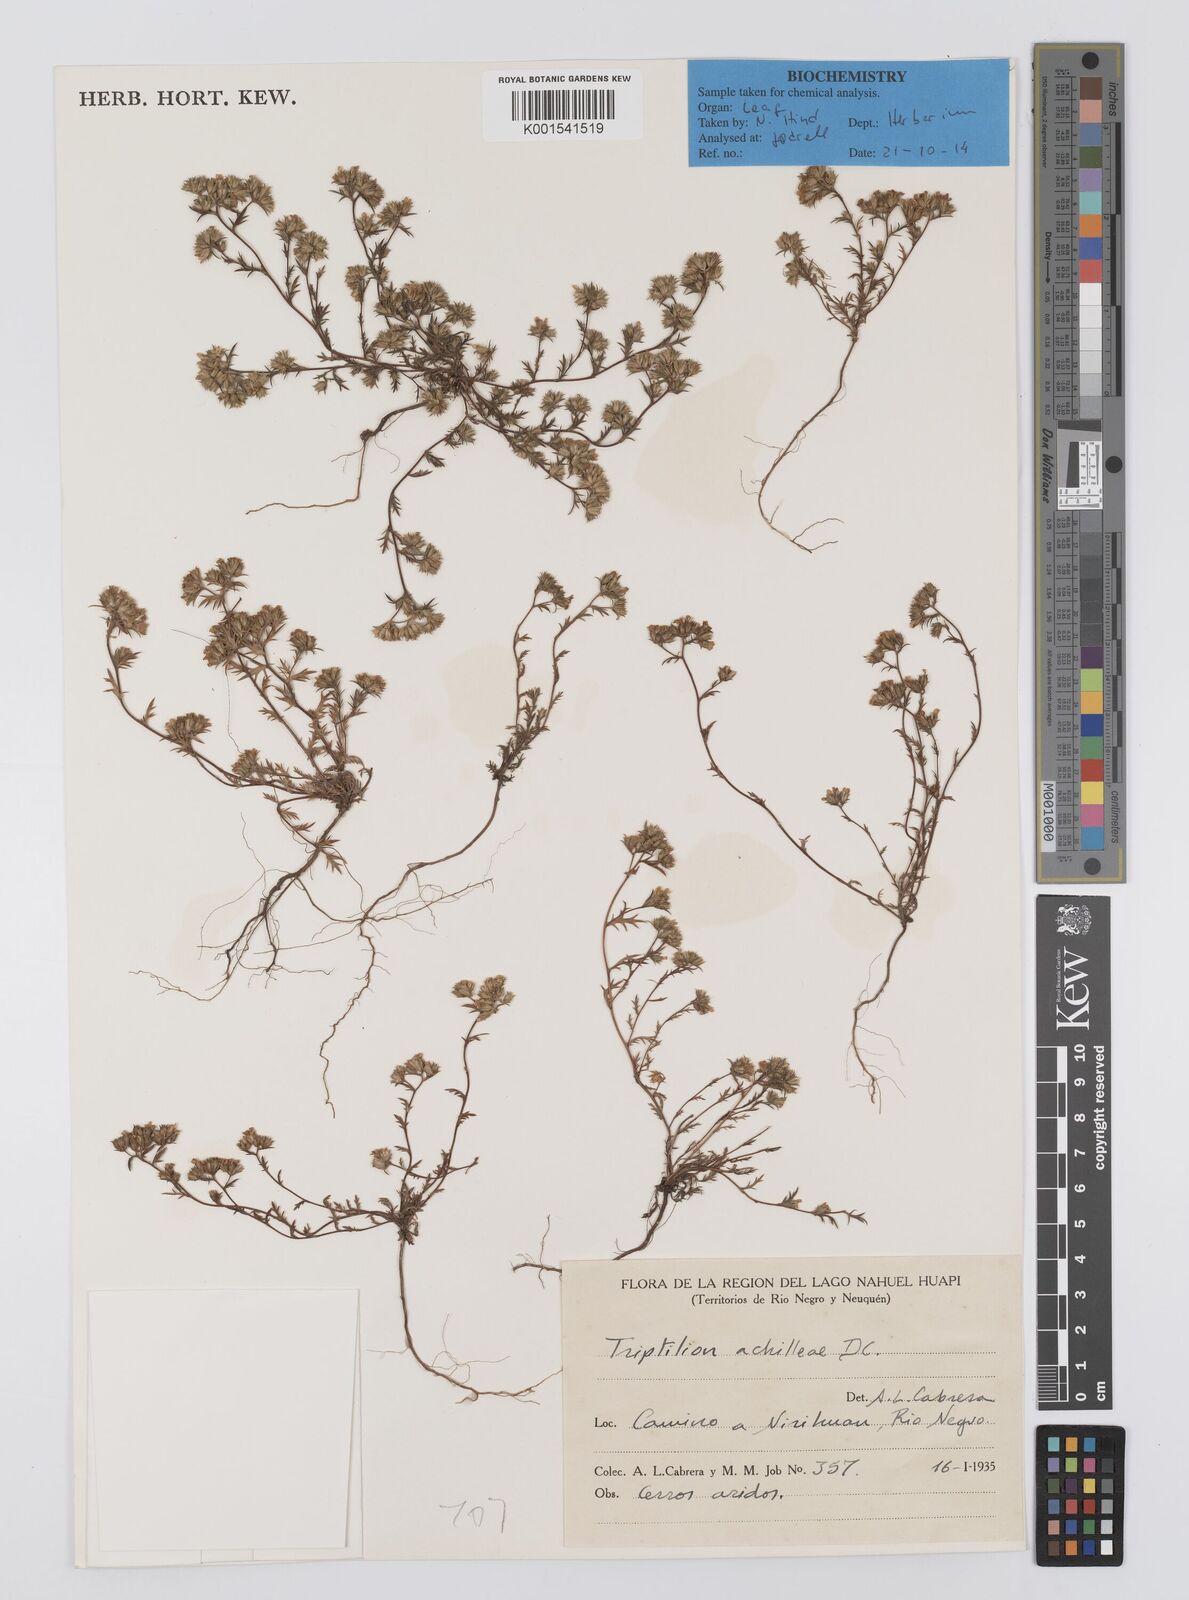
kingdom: Plantae
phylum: Tracheophyta
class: Magnoliopsida
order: Asterales
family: Asteraceae
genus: Triptilion
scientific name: Triptilion achilleae
